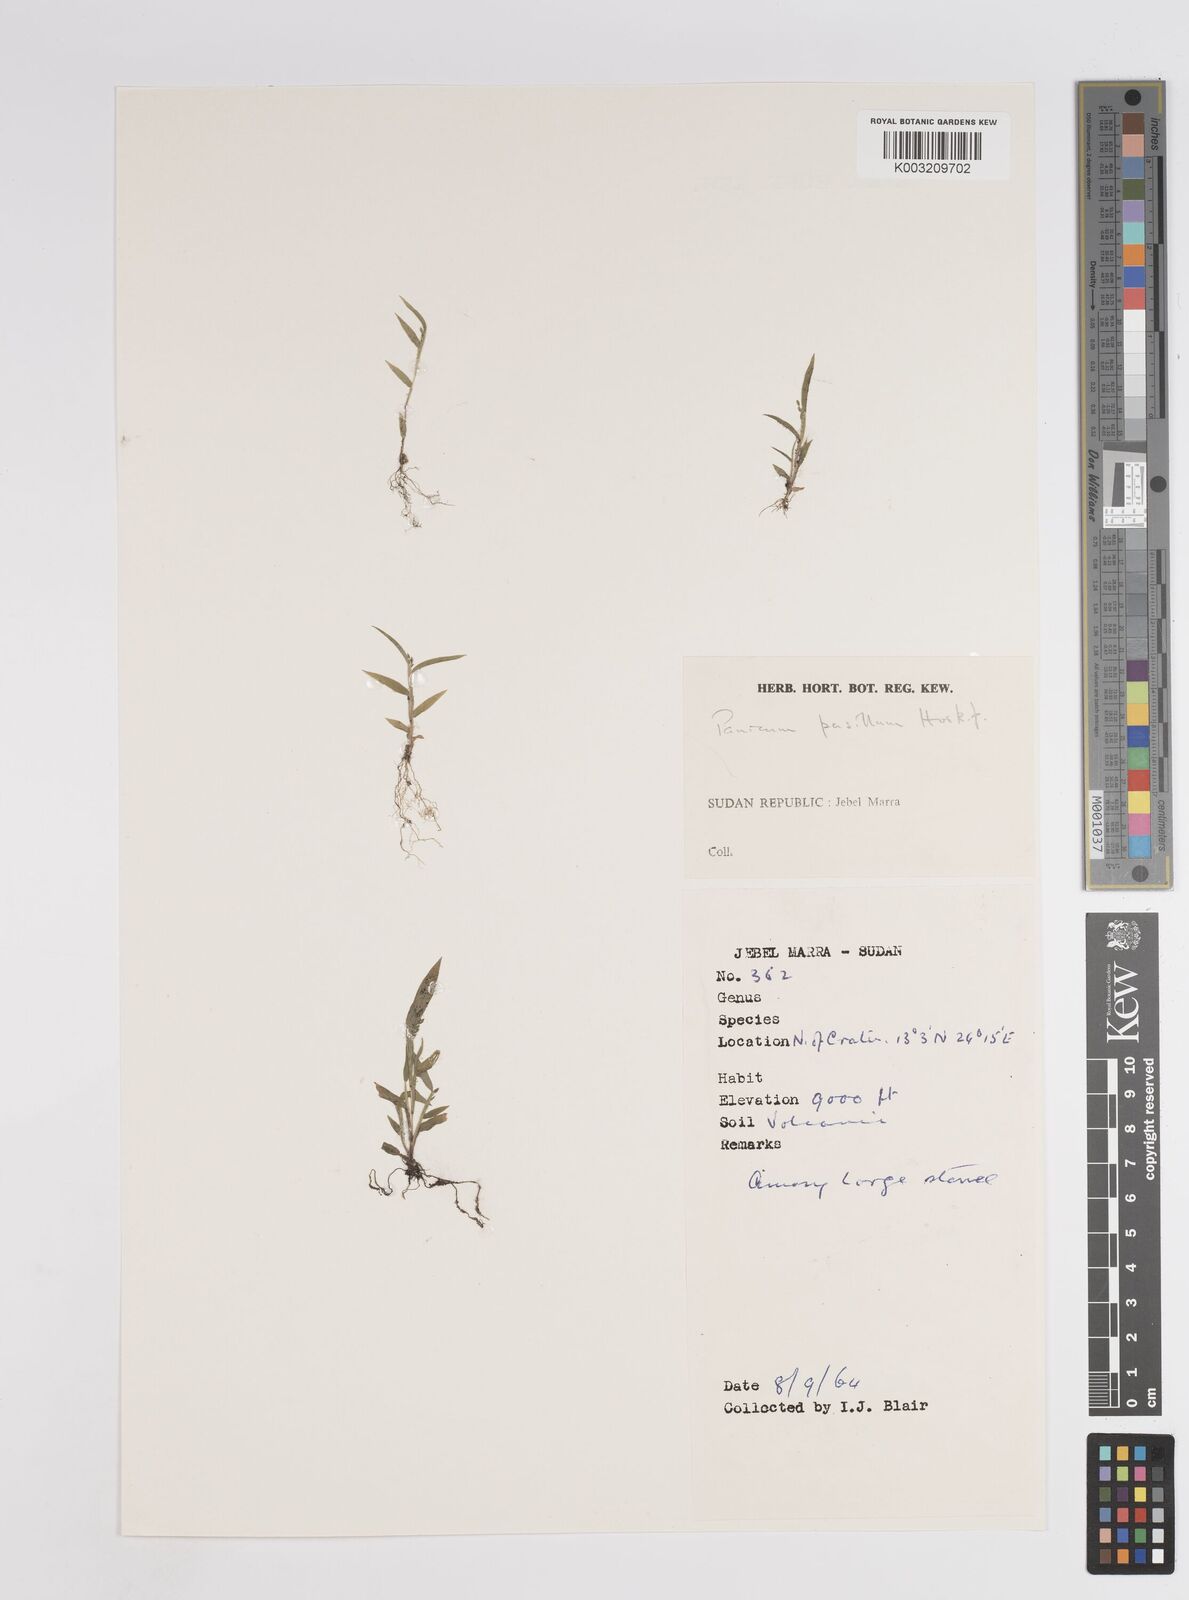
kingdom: Plantae
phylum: Tracheophyta
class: Liliopsida
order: Poales
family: Poaceae
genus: Panicum
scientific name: Panicum pusillum
